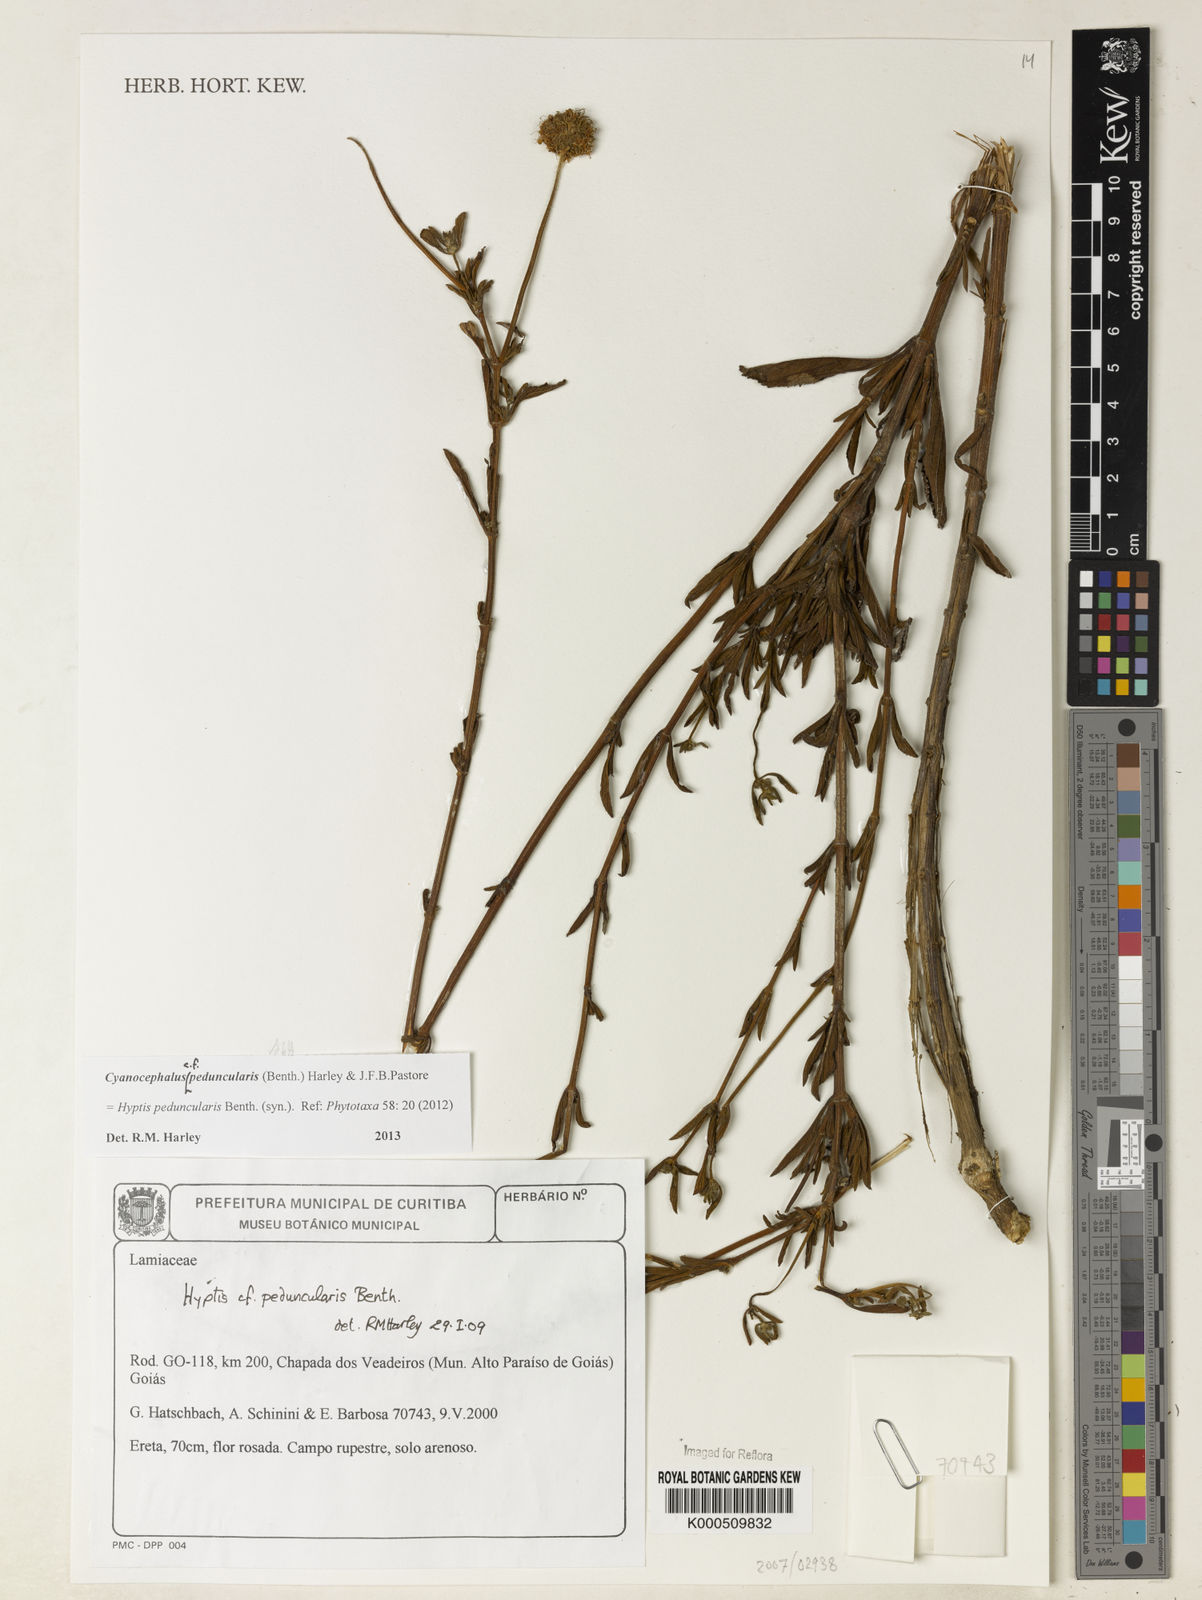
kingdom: Plantae
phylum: Tracheophyta
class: Magnoliopsida
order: Lamiales
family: Lamiaceae
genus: Cyanocephalus
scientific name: Cyanocephalus peduncularis
